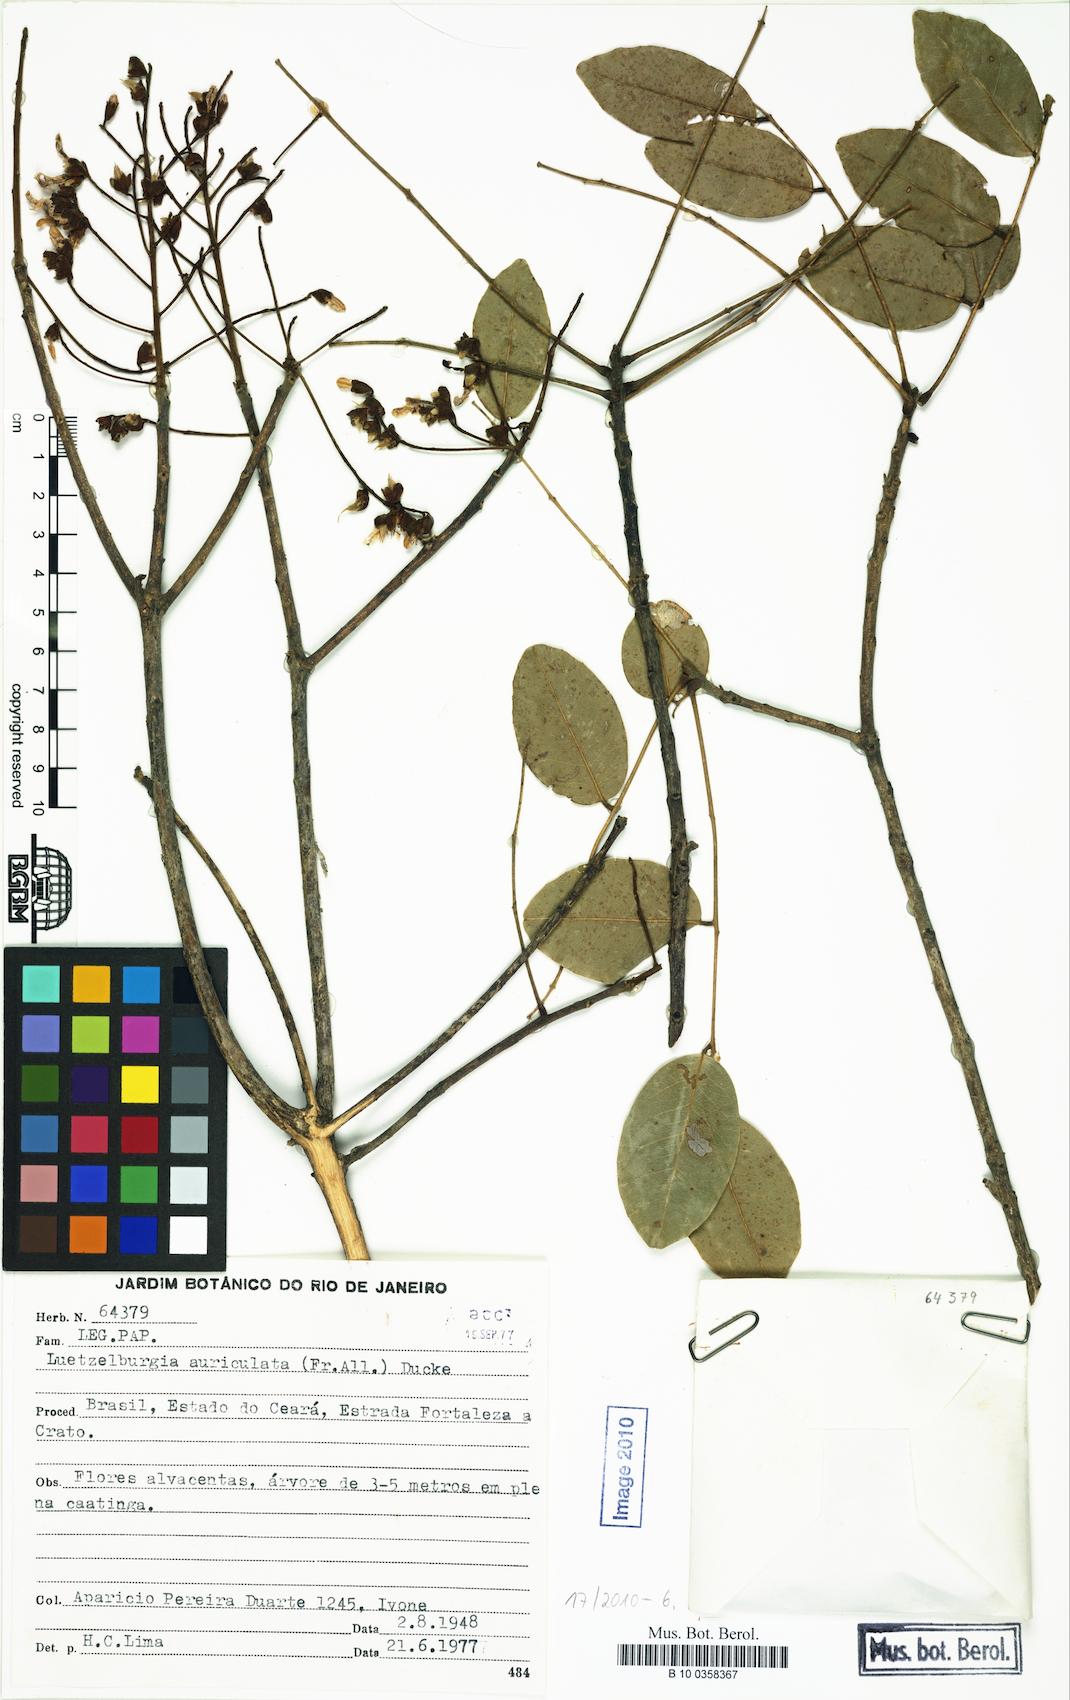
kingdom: Plantae
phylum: Tracheophyta
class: Magnoliopsida
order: Fabales
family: Fabaceae
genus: Luetzelburgia
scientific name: Luetzelburgia auriculata
